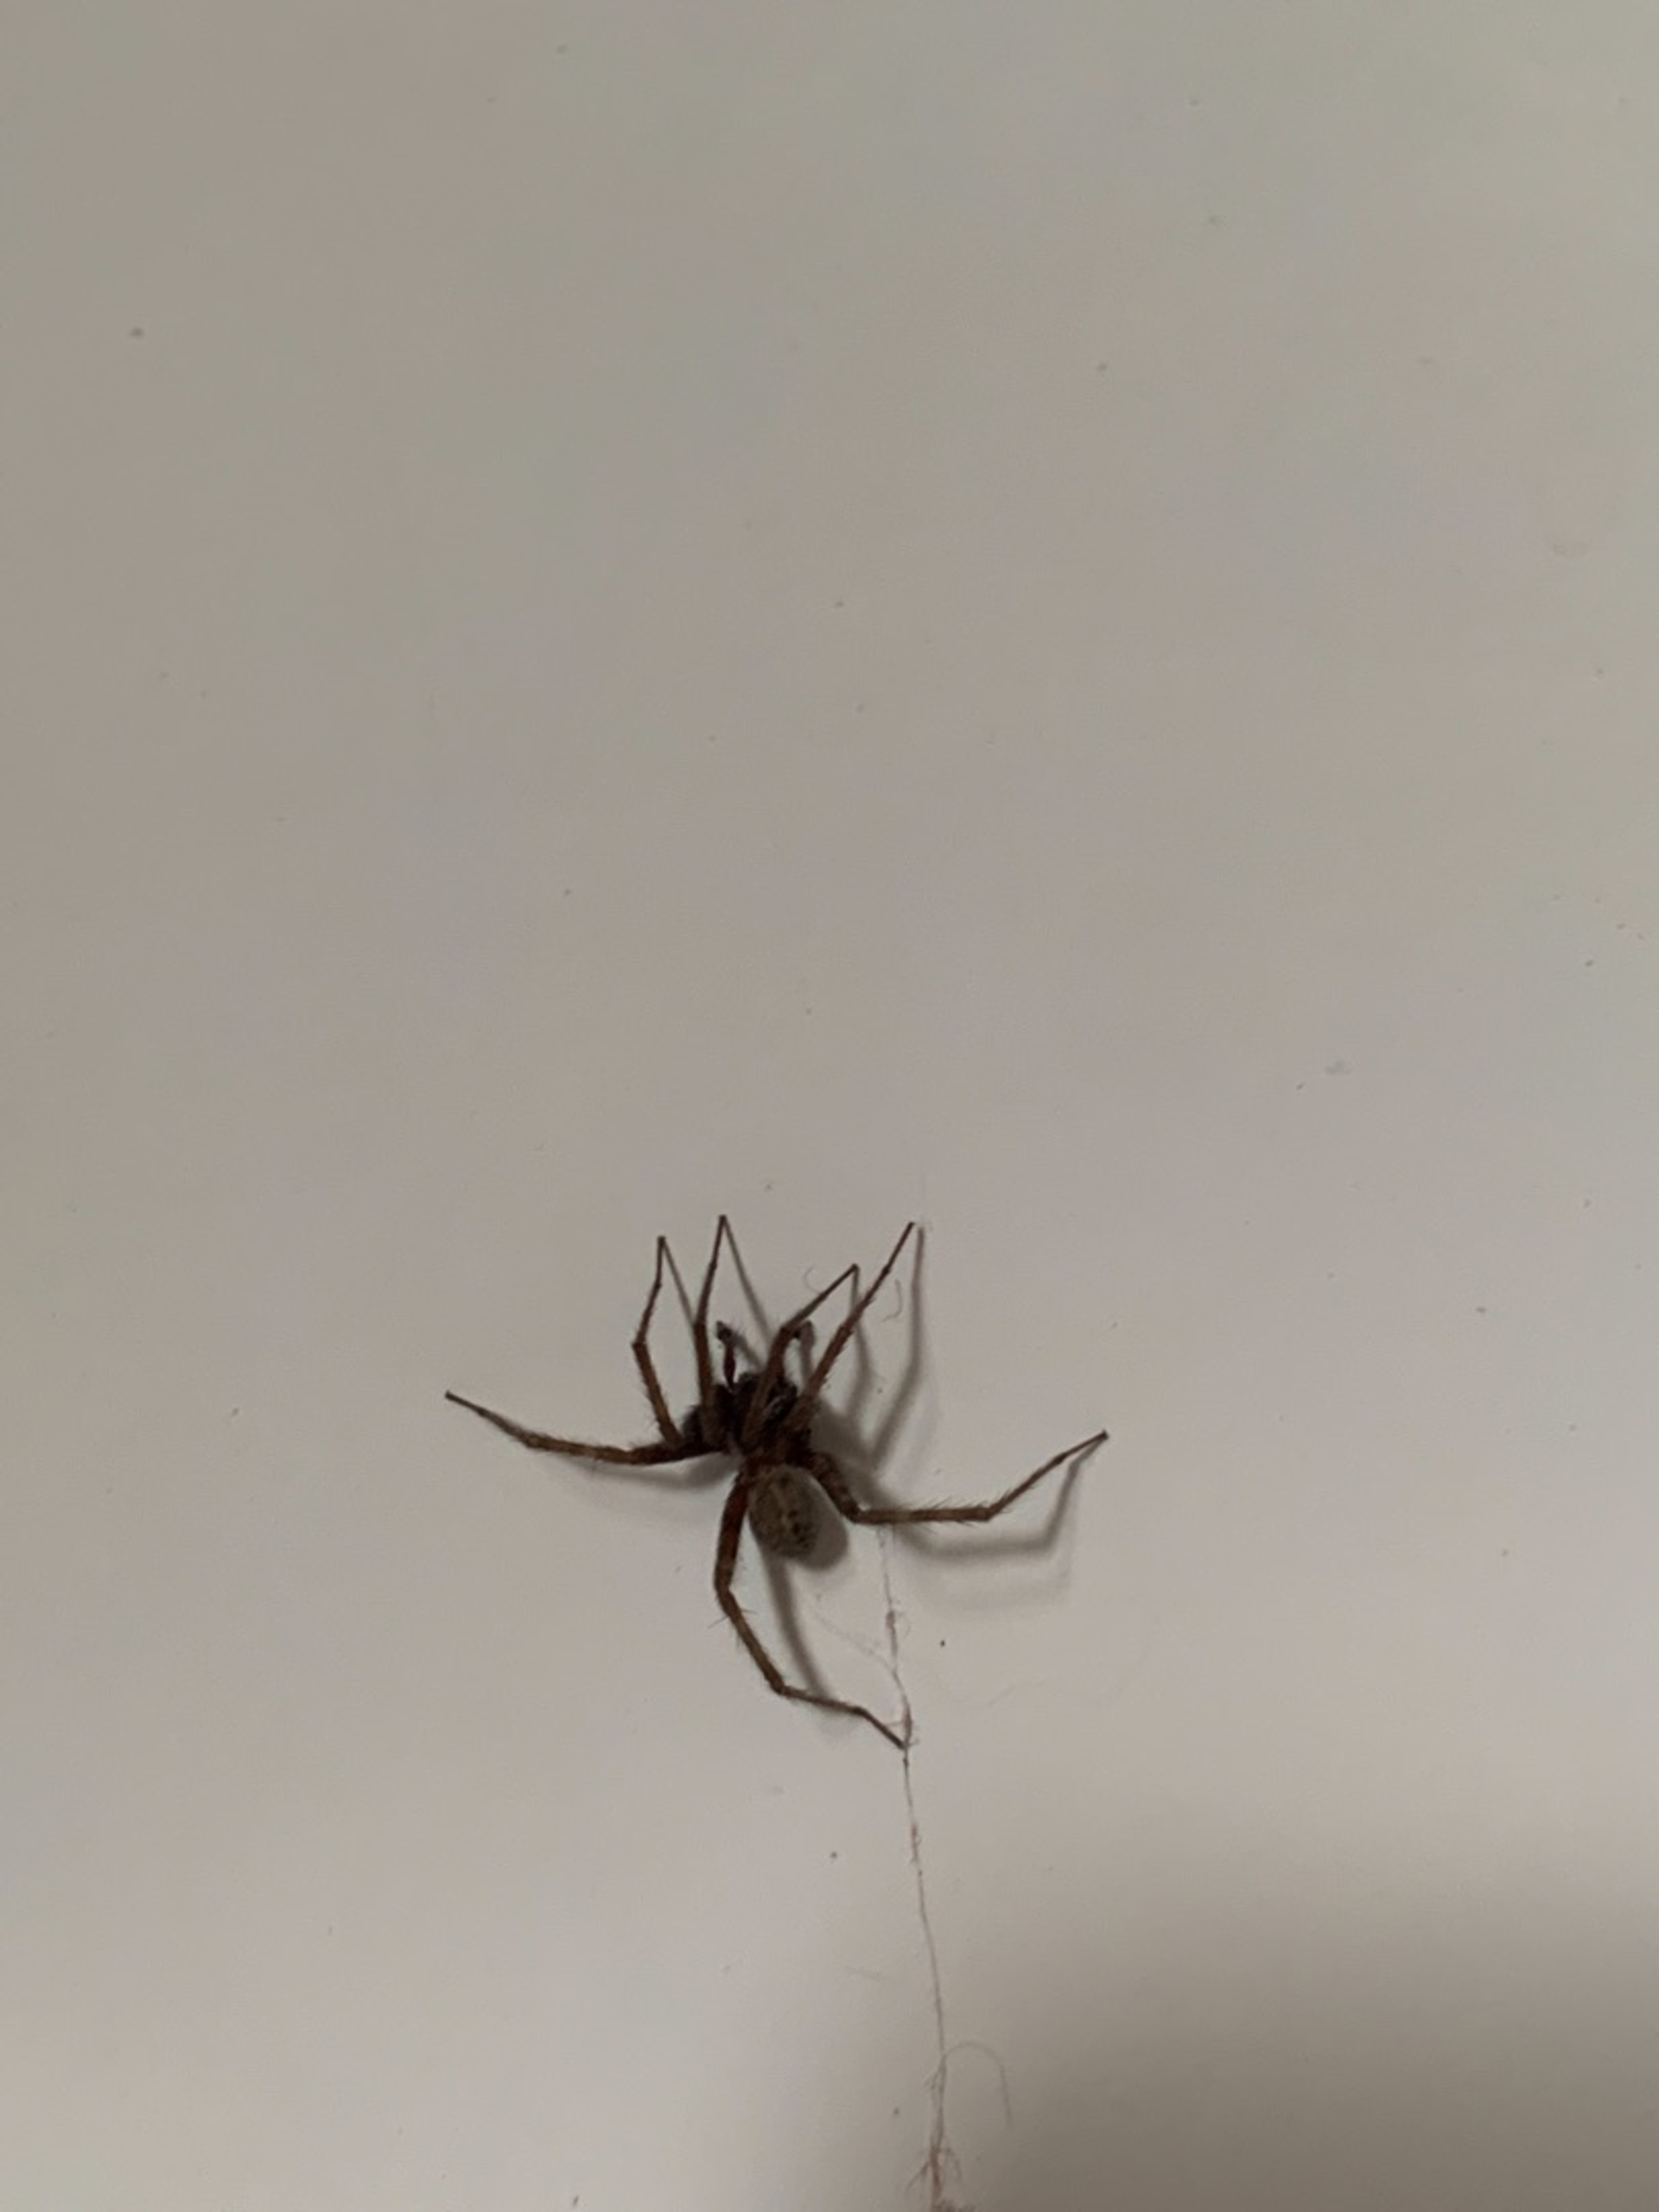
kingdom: Animalia
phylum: Arthropoda
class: Arachnida
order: Araneae
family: Agelenidae
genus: Tegenaria
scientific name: Tegenaria domestica
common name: Lille husedderkop
